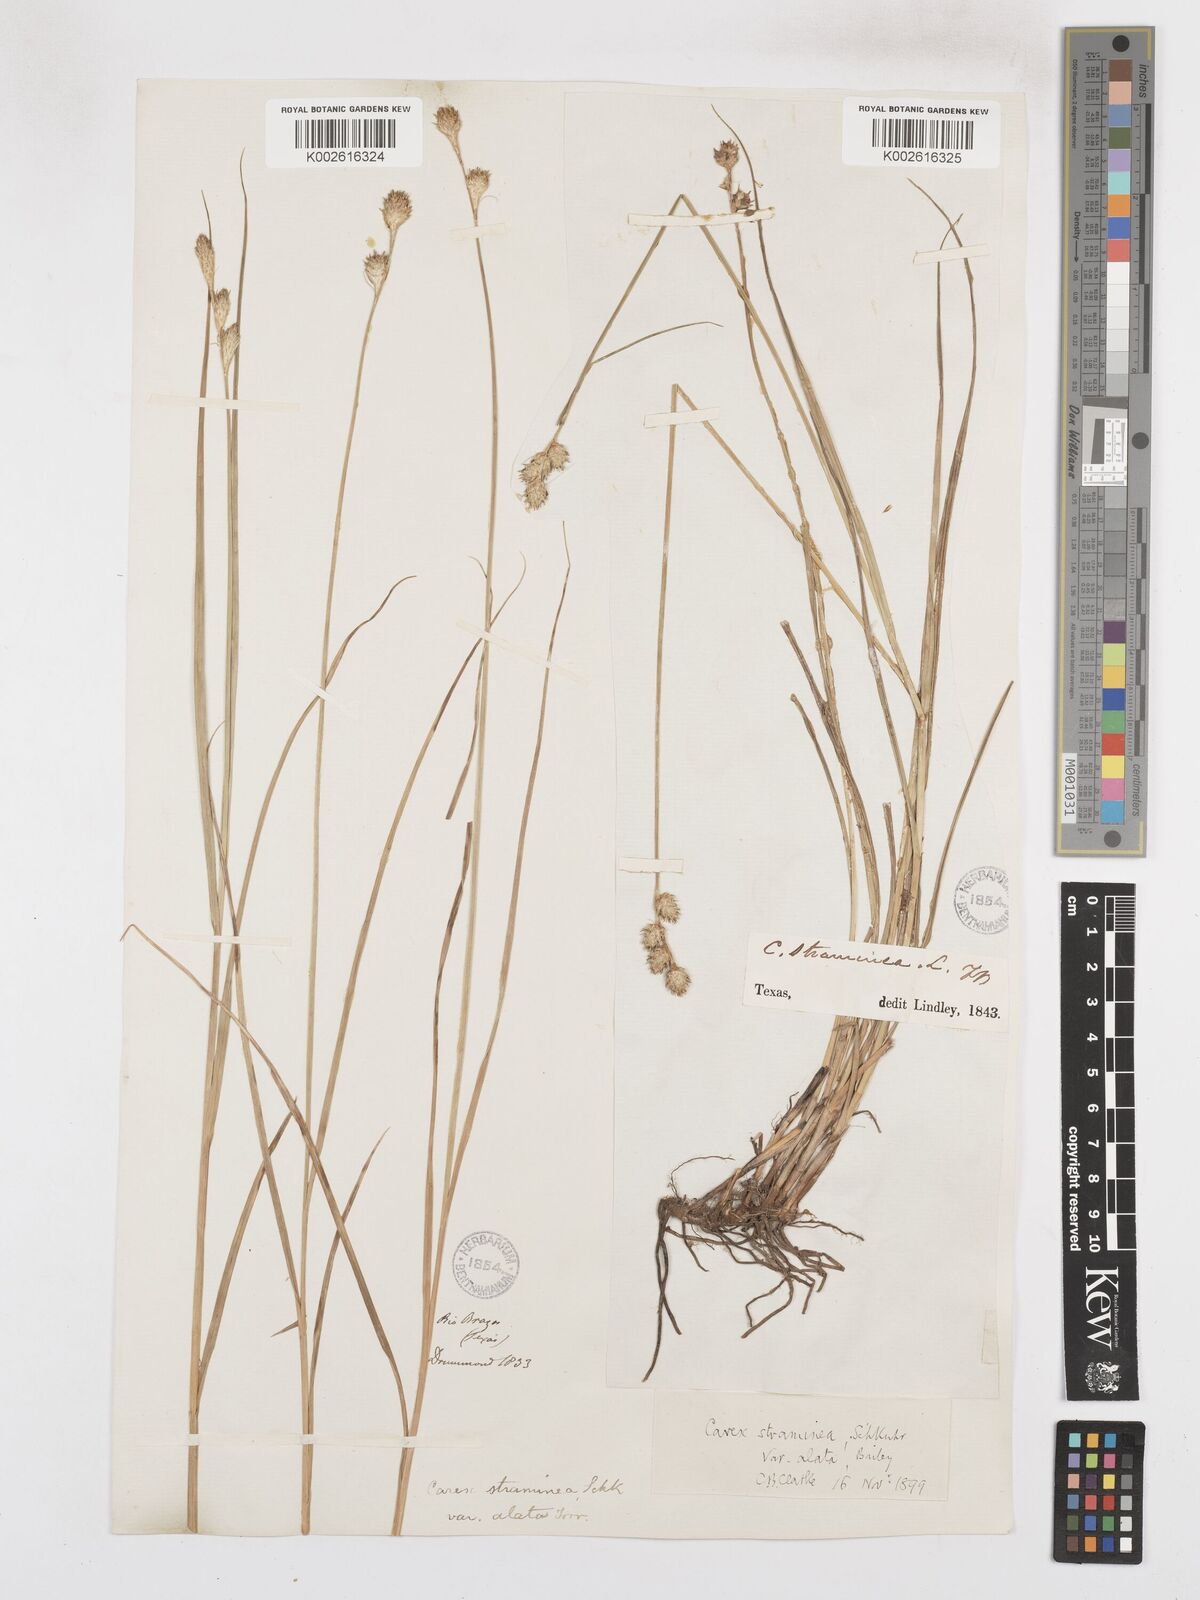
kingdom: Plantae
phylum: Tracheophyta
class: Liliopsida
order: Poales
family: Cyperaceae
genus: Carex
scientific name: Carex alata
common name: Broad-winged sedge
